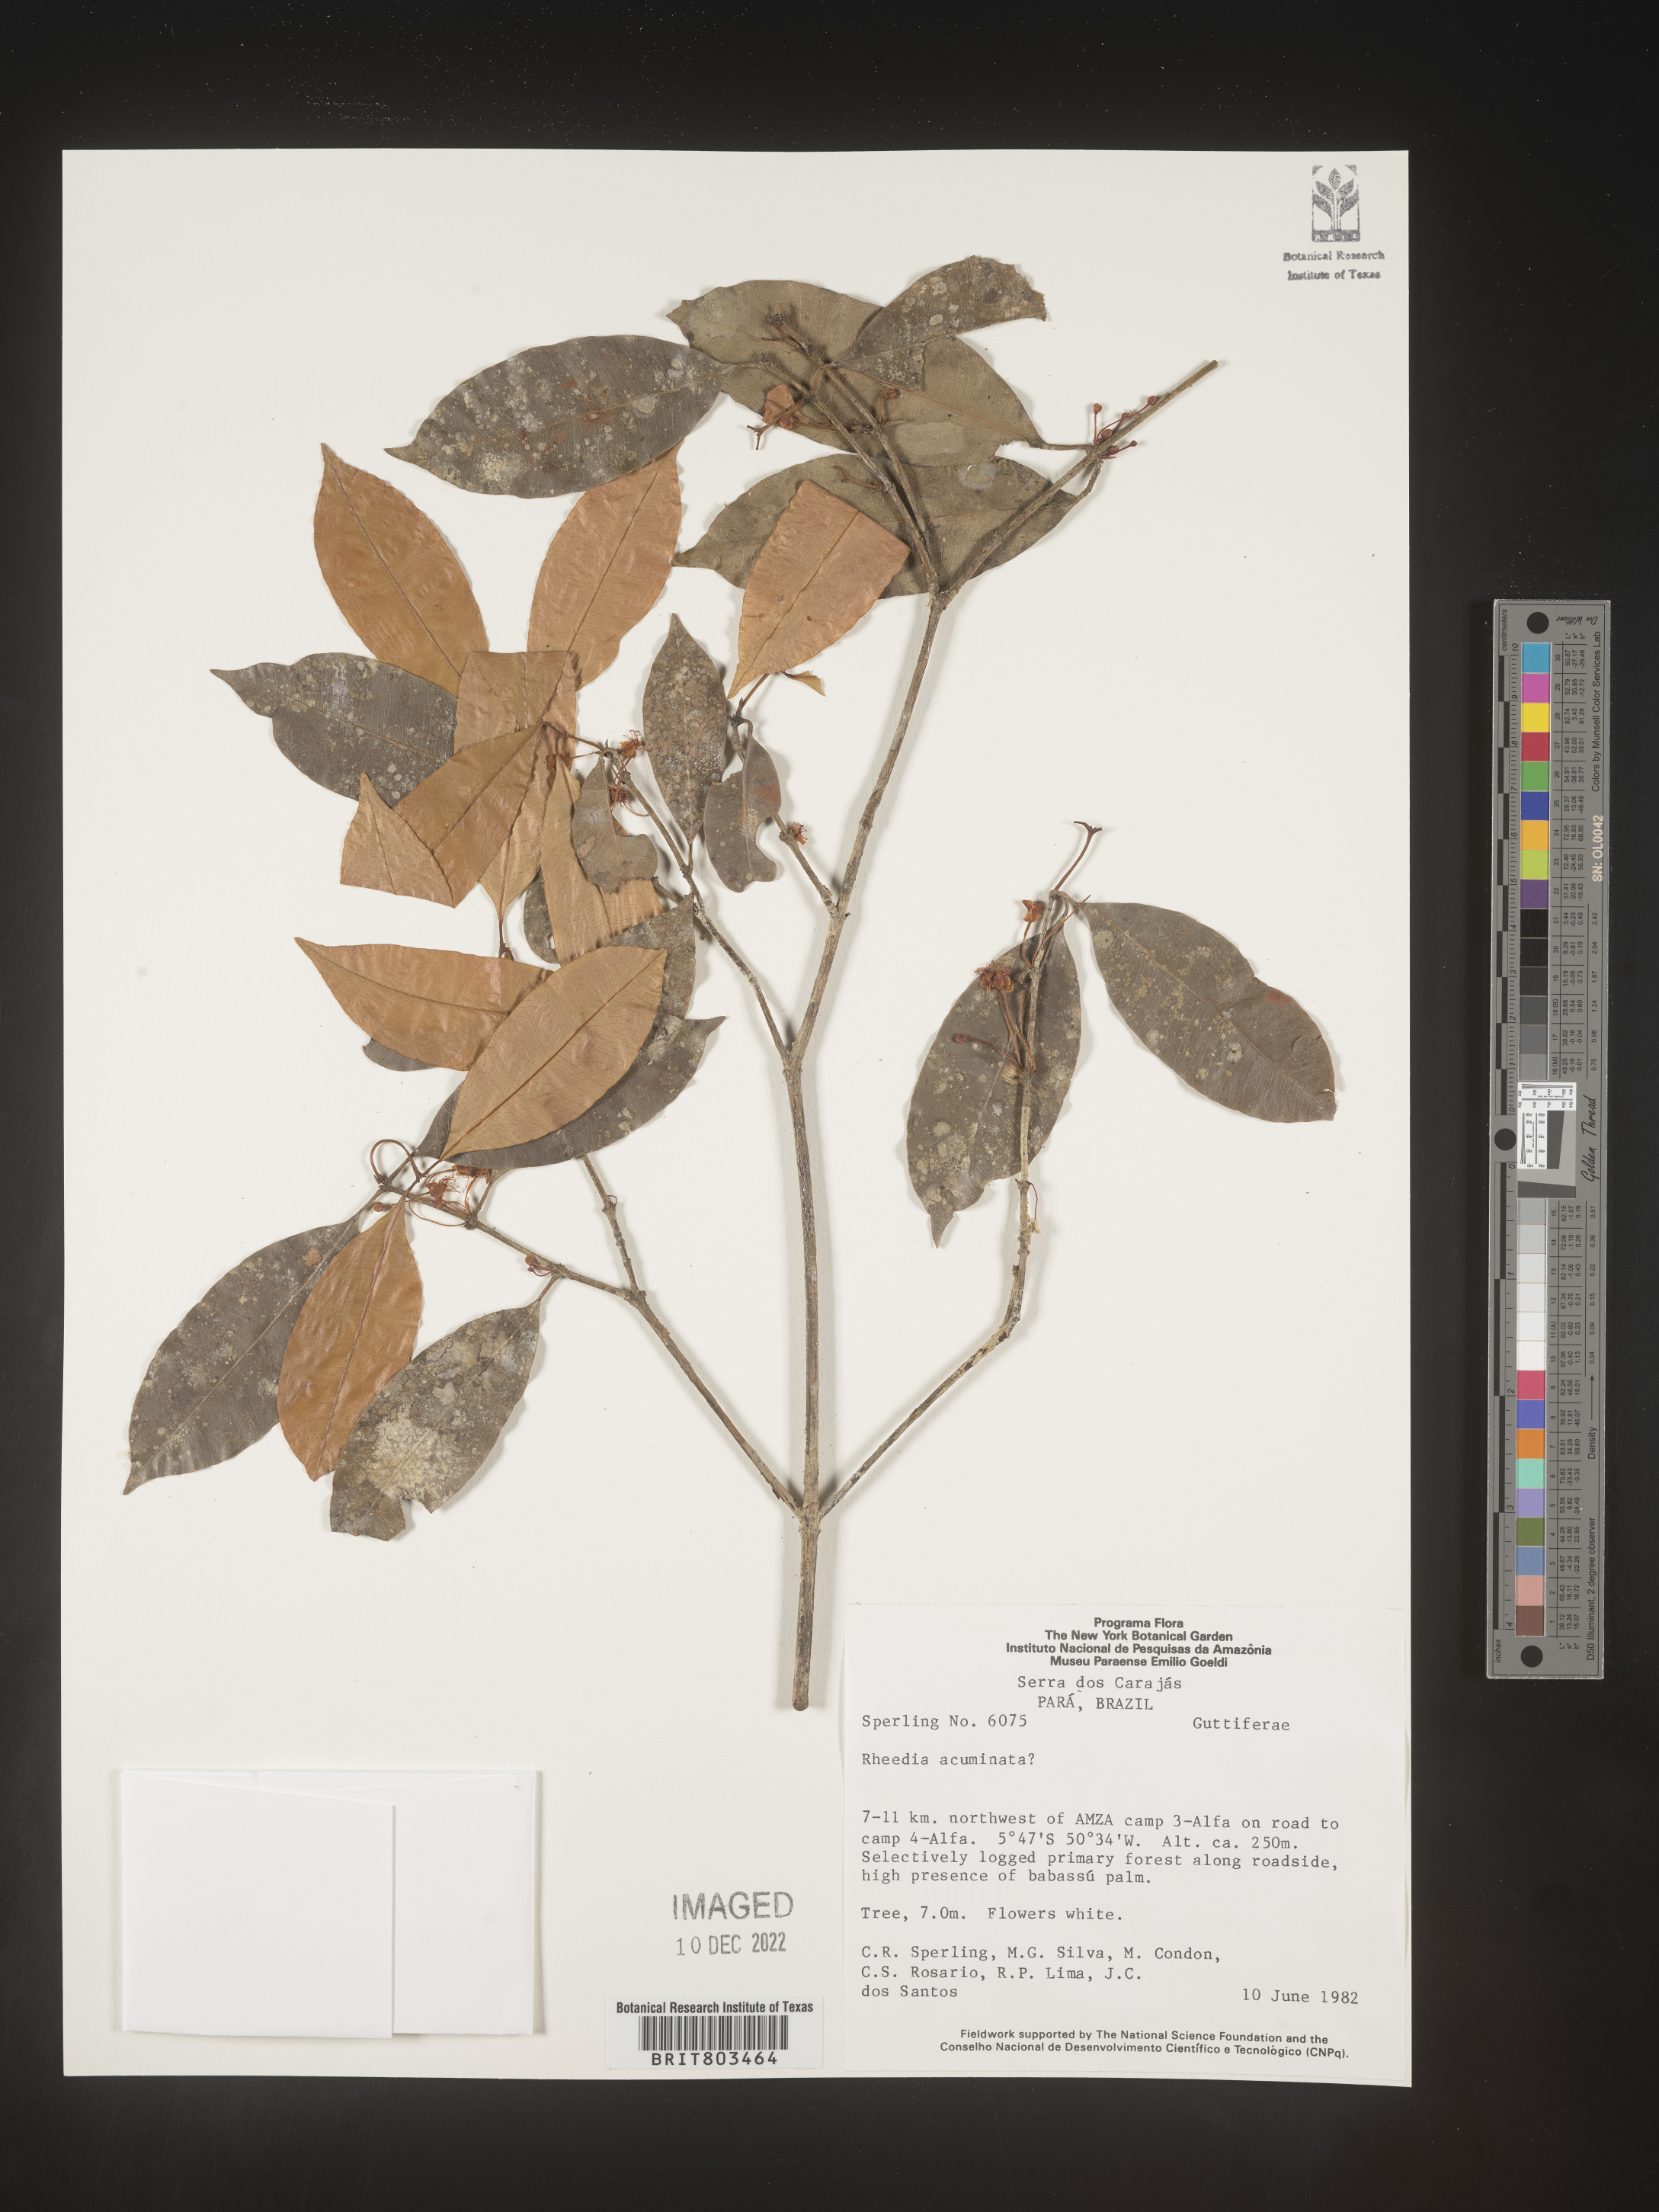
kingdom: Plantae
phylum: Tracheophyta
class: Magnoliopsida
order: Malpighiales
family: Clusiaceae
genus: Tovomita
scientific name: Tovomita
